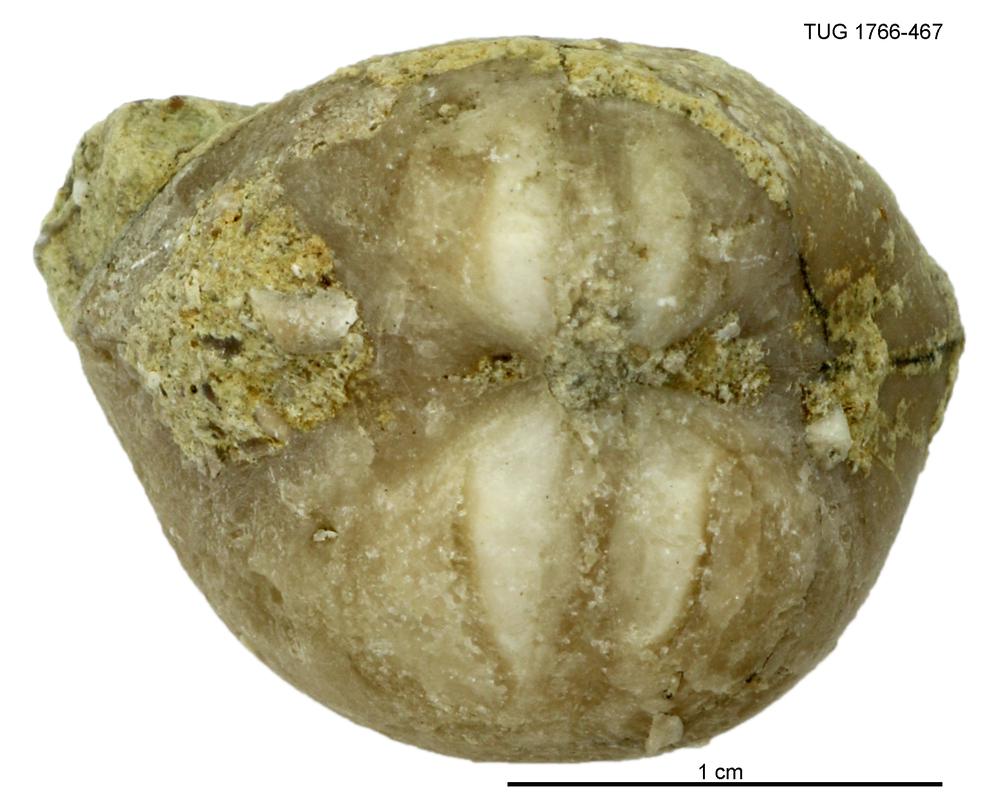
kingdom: Animalia
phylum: Brachiopoda
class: Rhynchonellata
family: Porambonitidae
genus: Porambonites
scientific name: Porambonites
